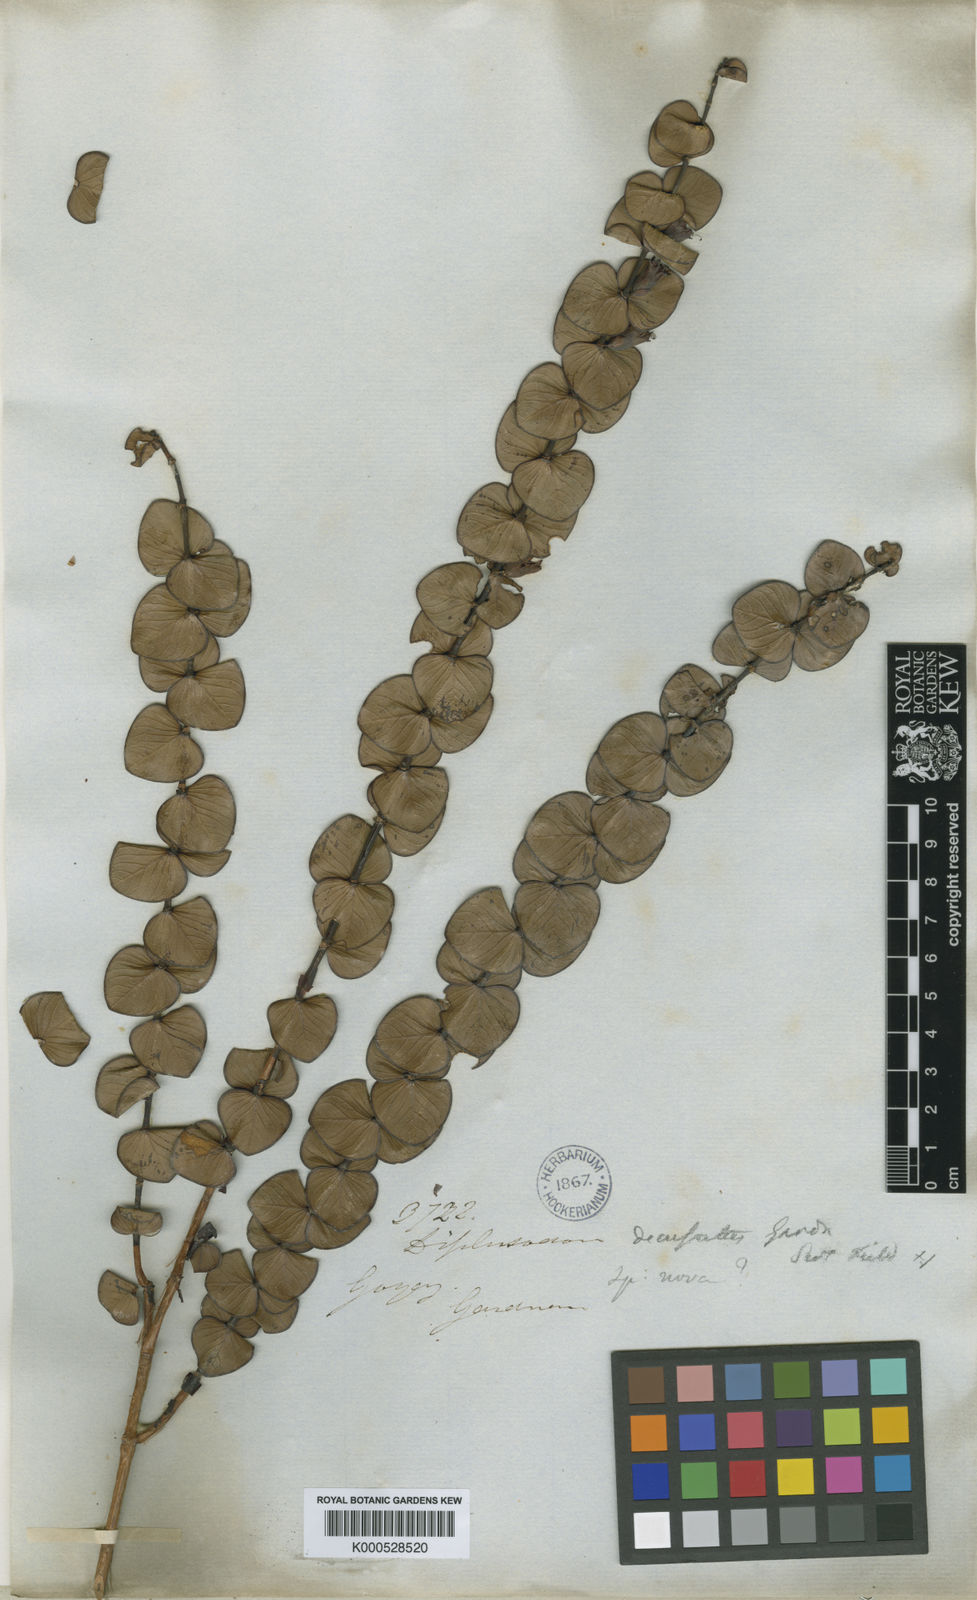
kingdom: Plantae
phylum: Tracheophyta
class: Magnoliopsida
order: Myrtales
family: Lythraceae
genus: Diplusodon
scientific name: Diplusodon decussatus
